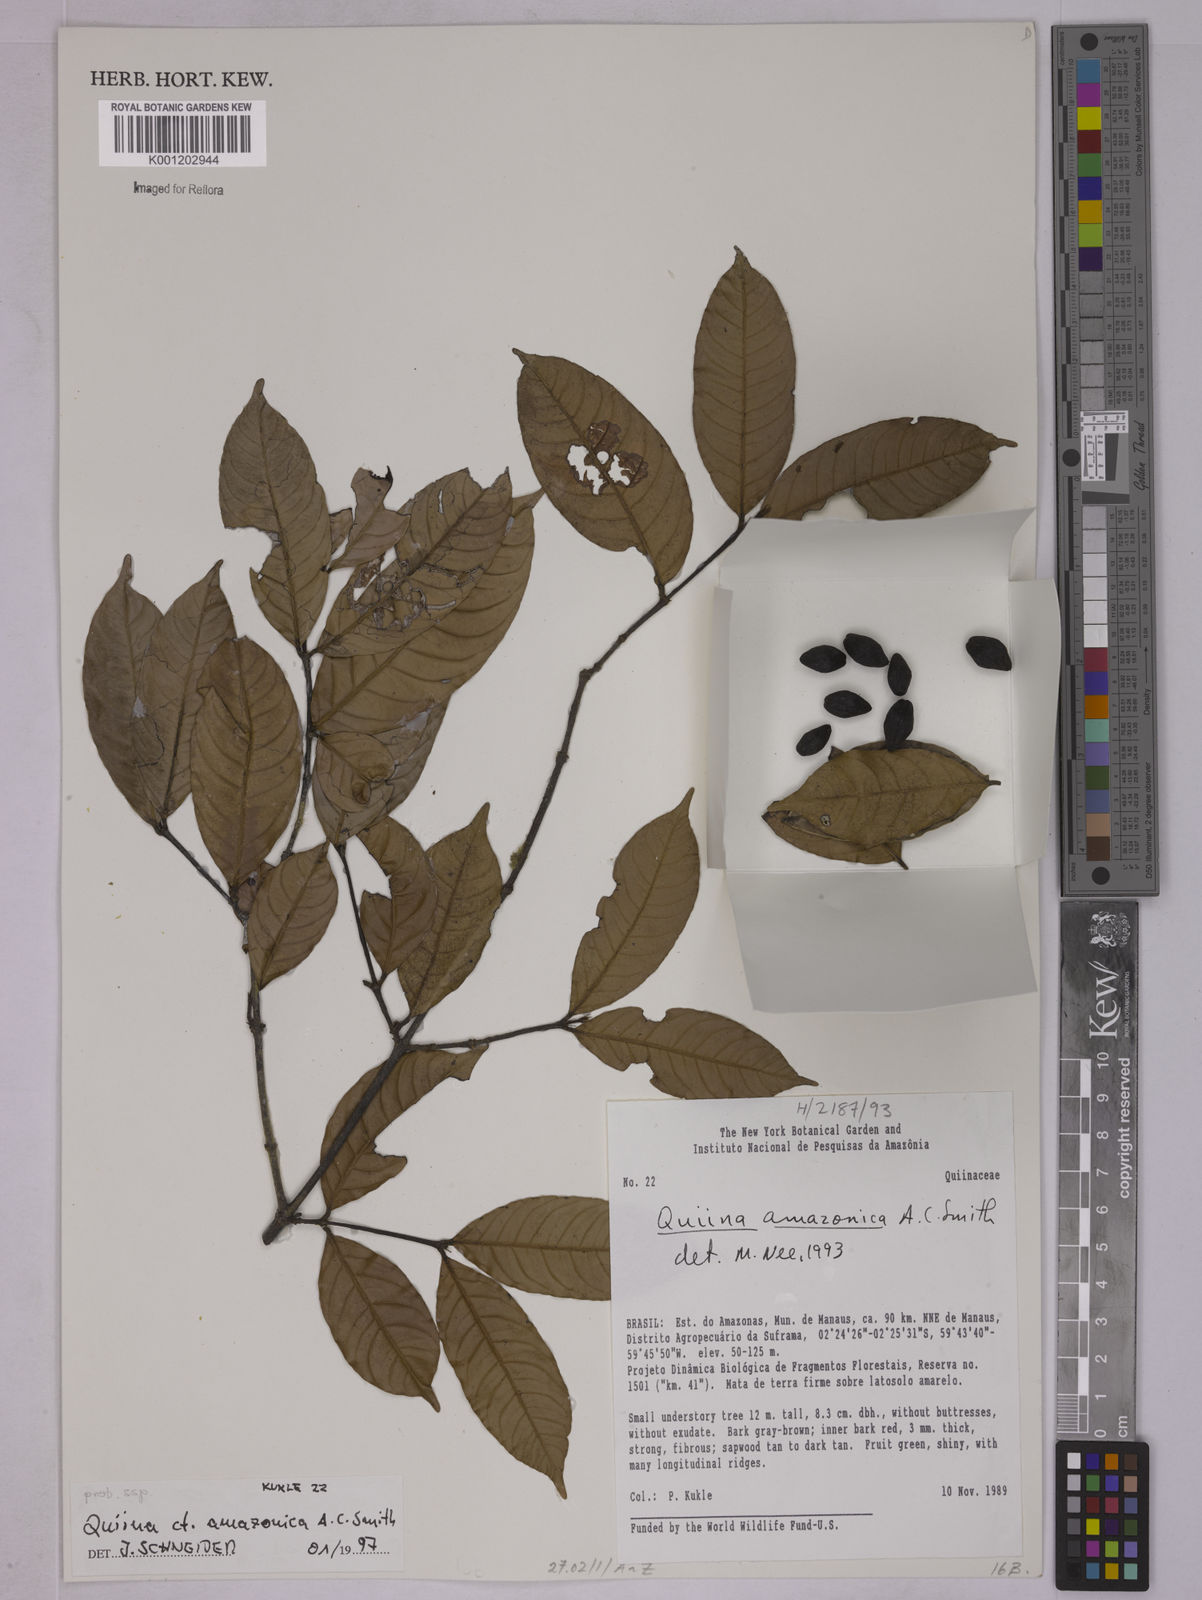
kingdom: Plantae
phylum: Tracheophyta
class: Magnoliopsida
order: Malpighiales
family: Quiinaceae
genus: Quiina
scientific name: Quiina amazonica
